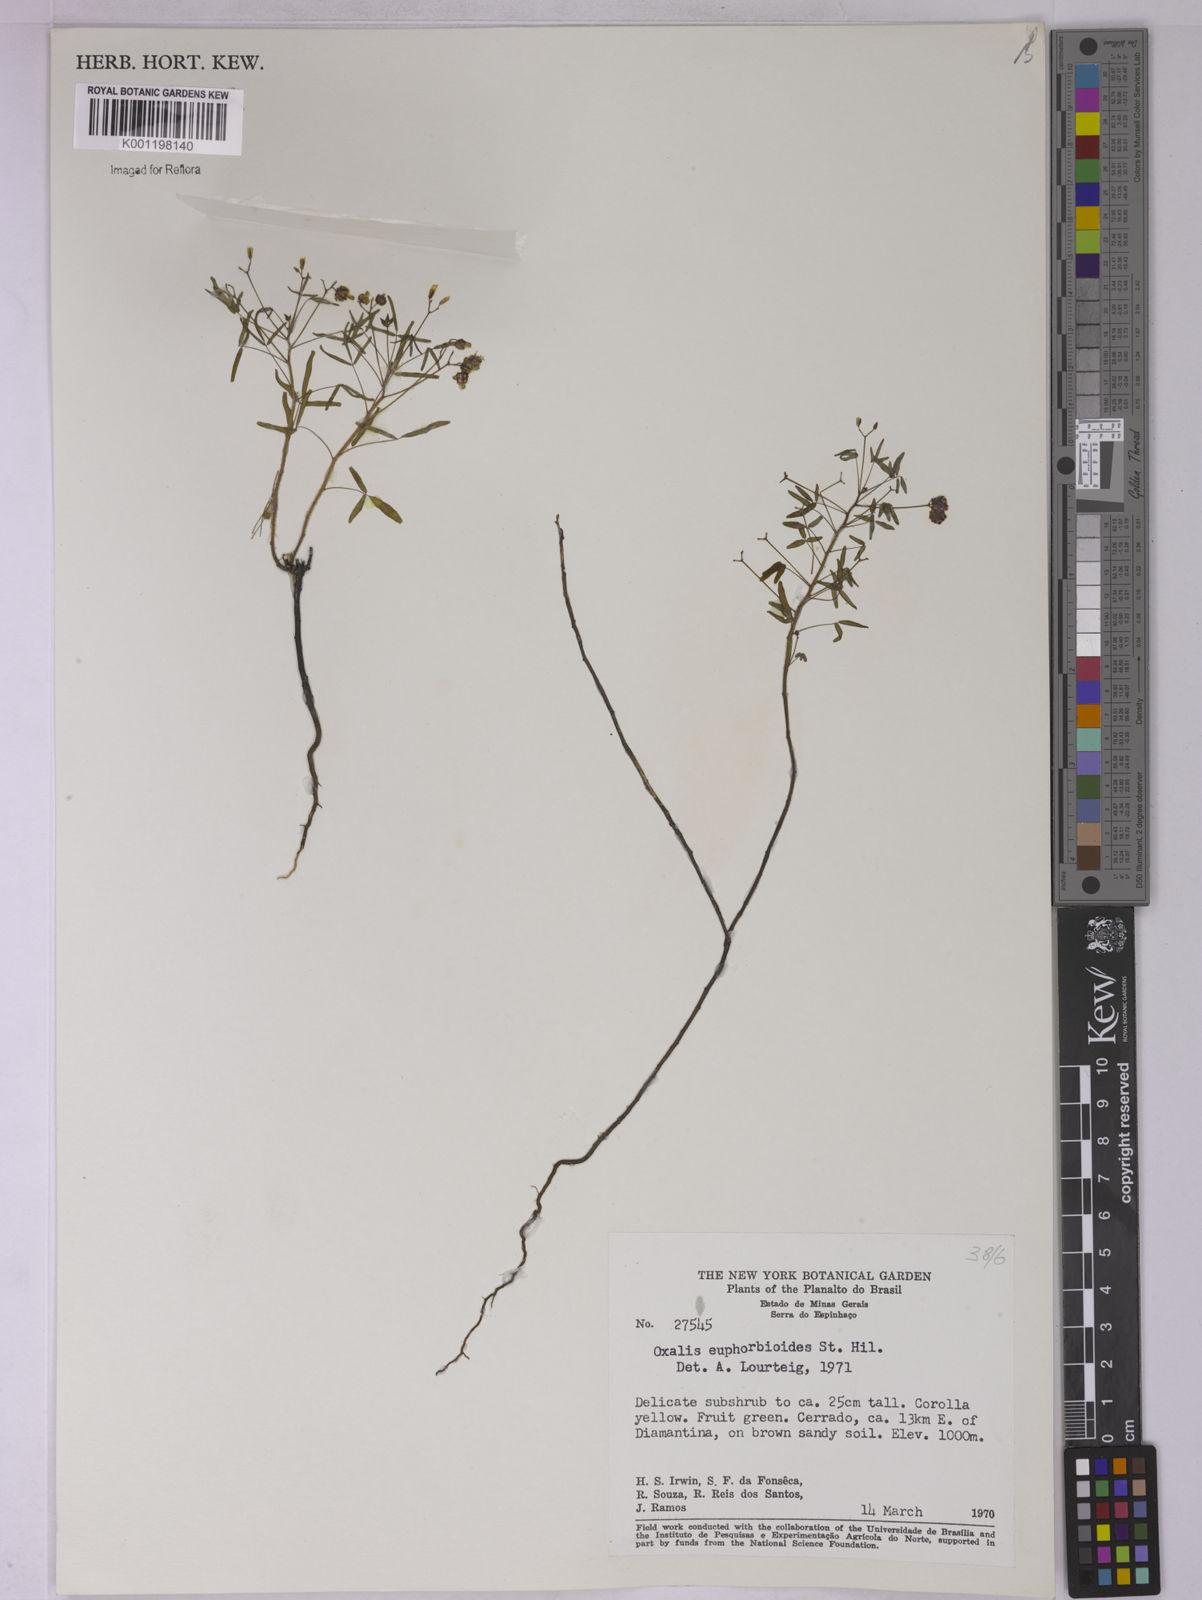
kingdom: Plantae
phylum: Tracheophyta
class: Magnoliopsida
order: Oxalidales
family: Oxalidaceae
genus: Oxalis
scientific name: Oxalis divaricata
